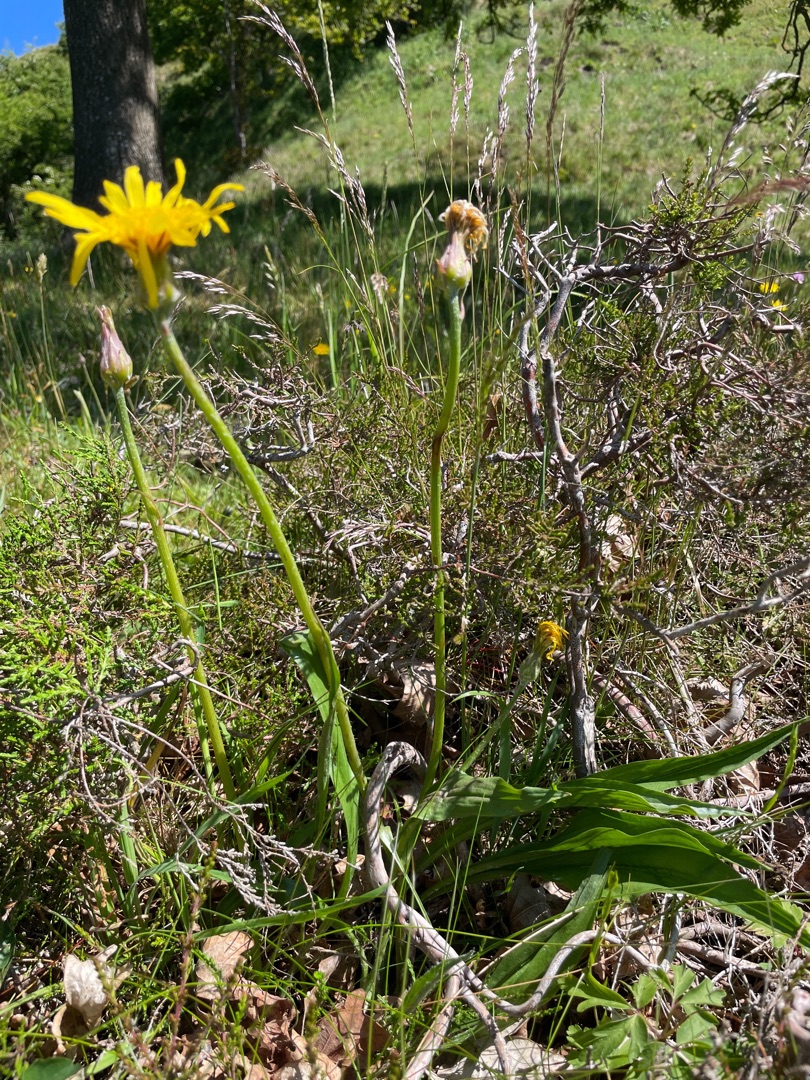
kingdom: Plantae
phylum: Tracheophyta
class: Magnoliopsida
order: Asterales
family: Asteraceae
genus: Scorzonera
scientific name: Scorzonera humilis
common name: Lav skorsoner
